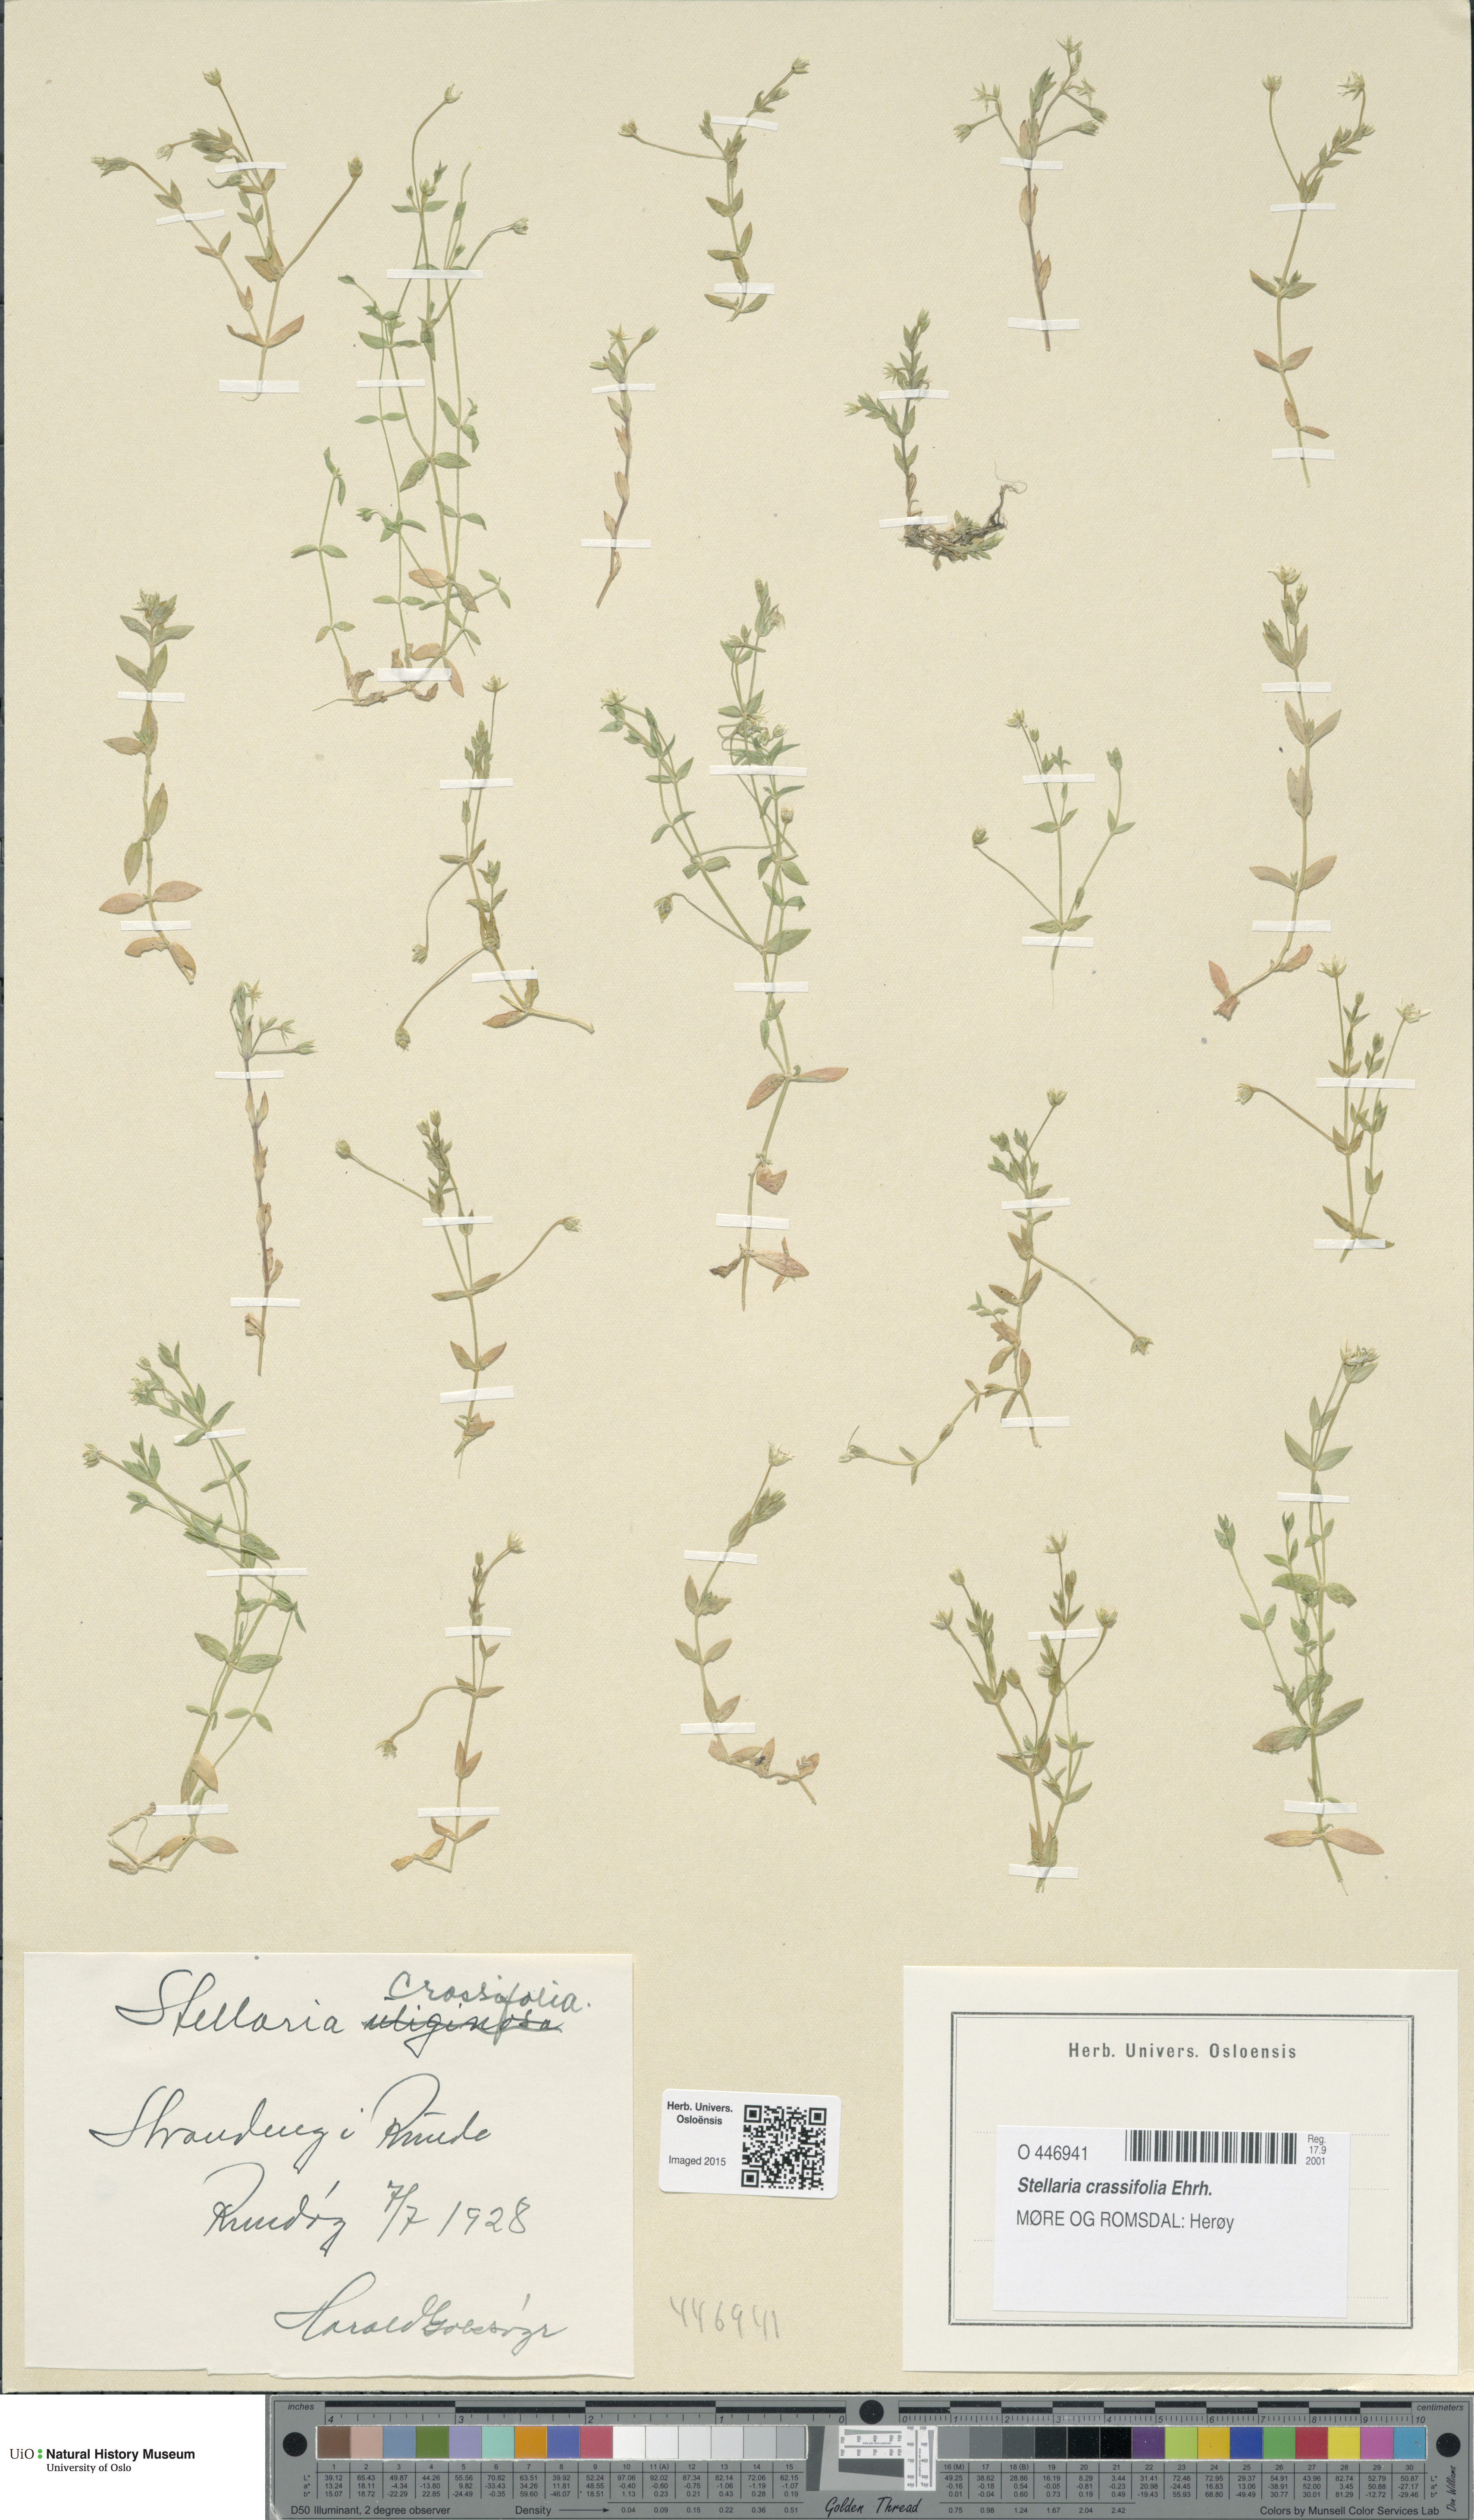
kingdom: Plantae
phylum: Tracheophyta
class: Magnoliopsida
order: Caryophyllales
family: Caryophyllaceae
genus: Stellaria
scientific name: Stellaria crassifolia
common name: Fleshy starwort
